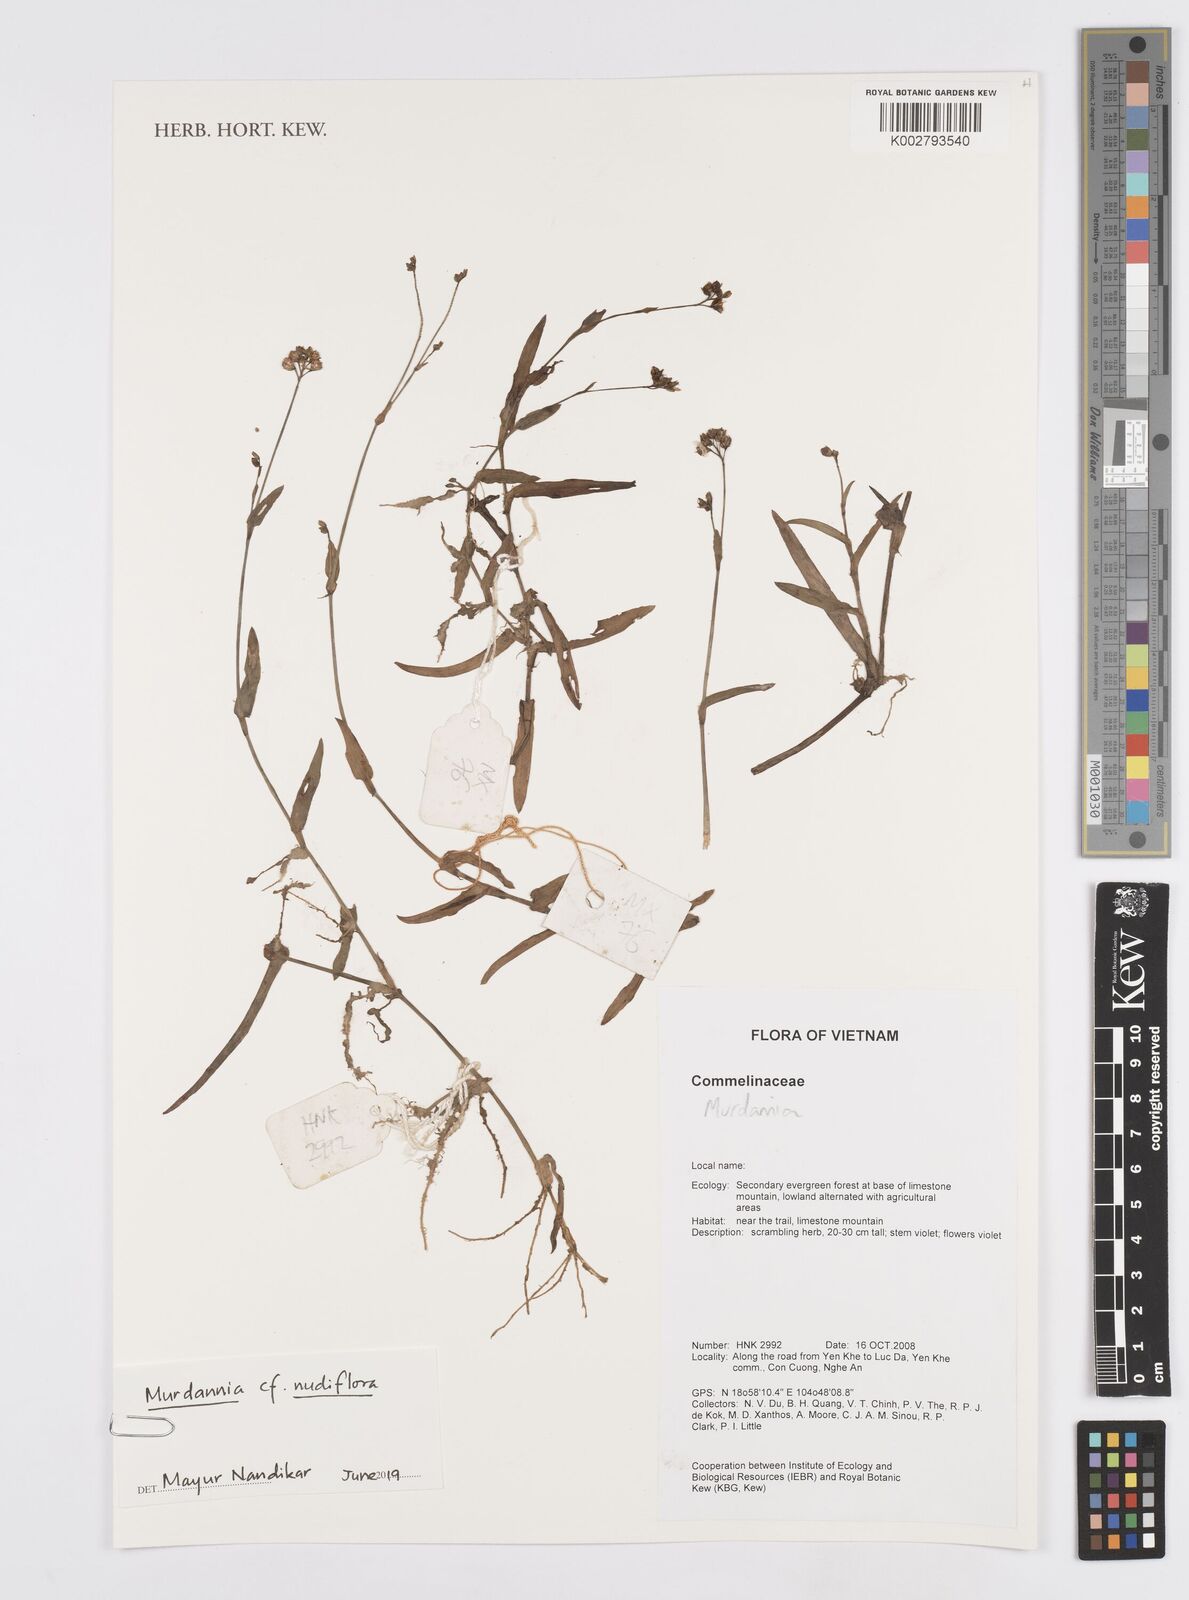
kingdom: Plantae
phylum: Tracheophyta
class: Liliopsida
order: Commelinales
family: Commelinaceae
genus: Murdannia
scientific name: Murdannia
